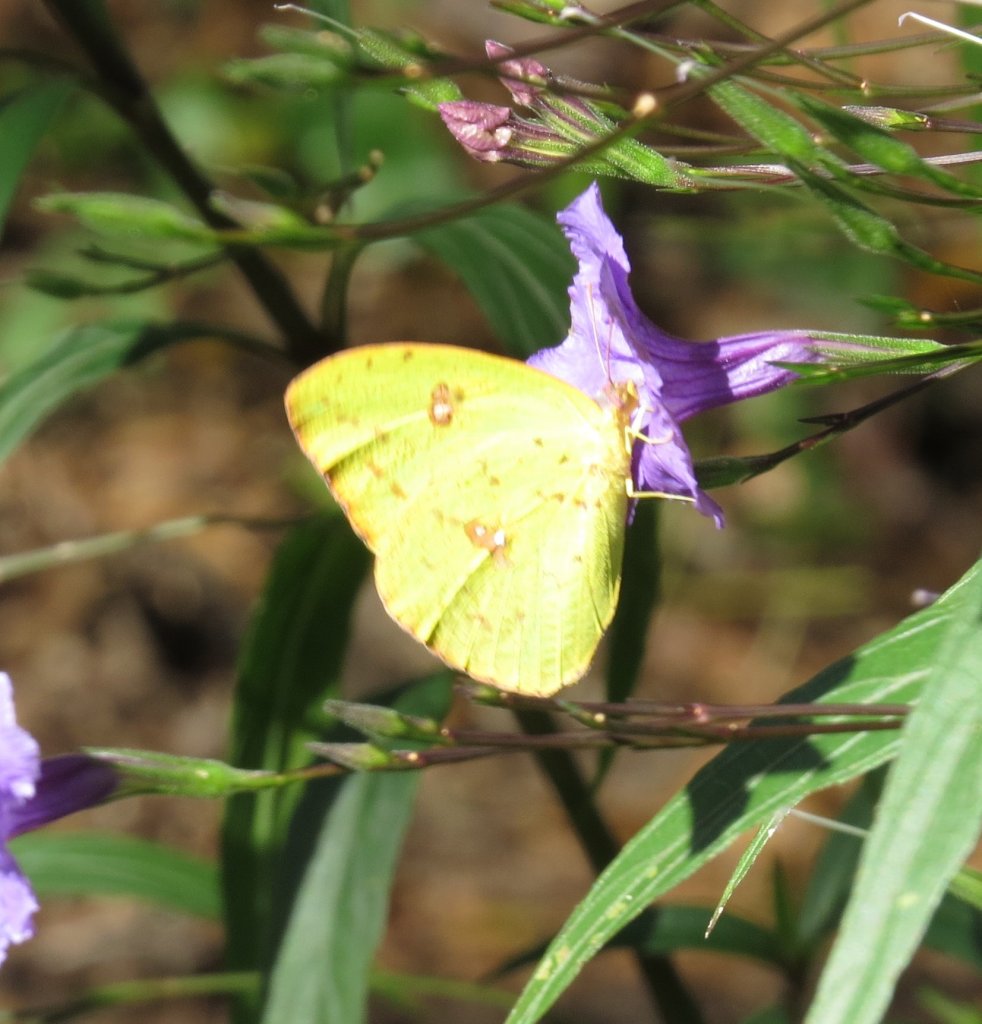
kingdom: Animalia
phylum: Arthropoda
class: Insecta
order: Lepidoptera
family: Pieridae
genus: Phoebis
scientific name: Phoebis sennae
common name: Cloudless Sulphur
